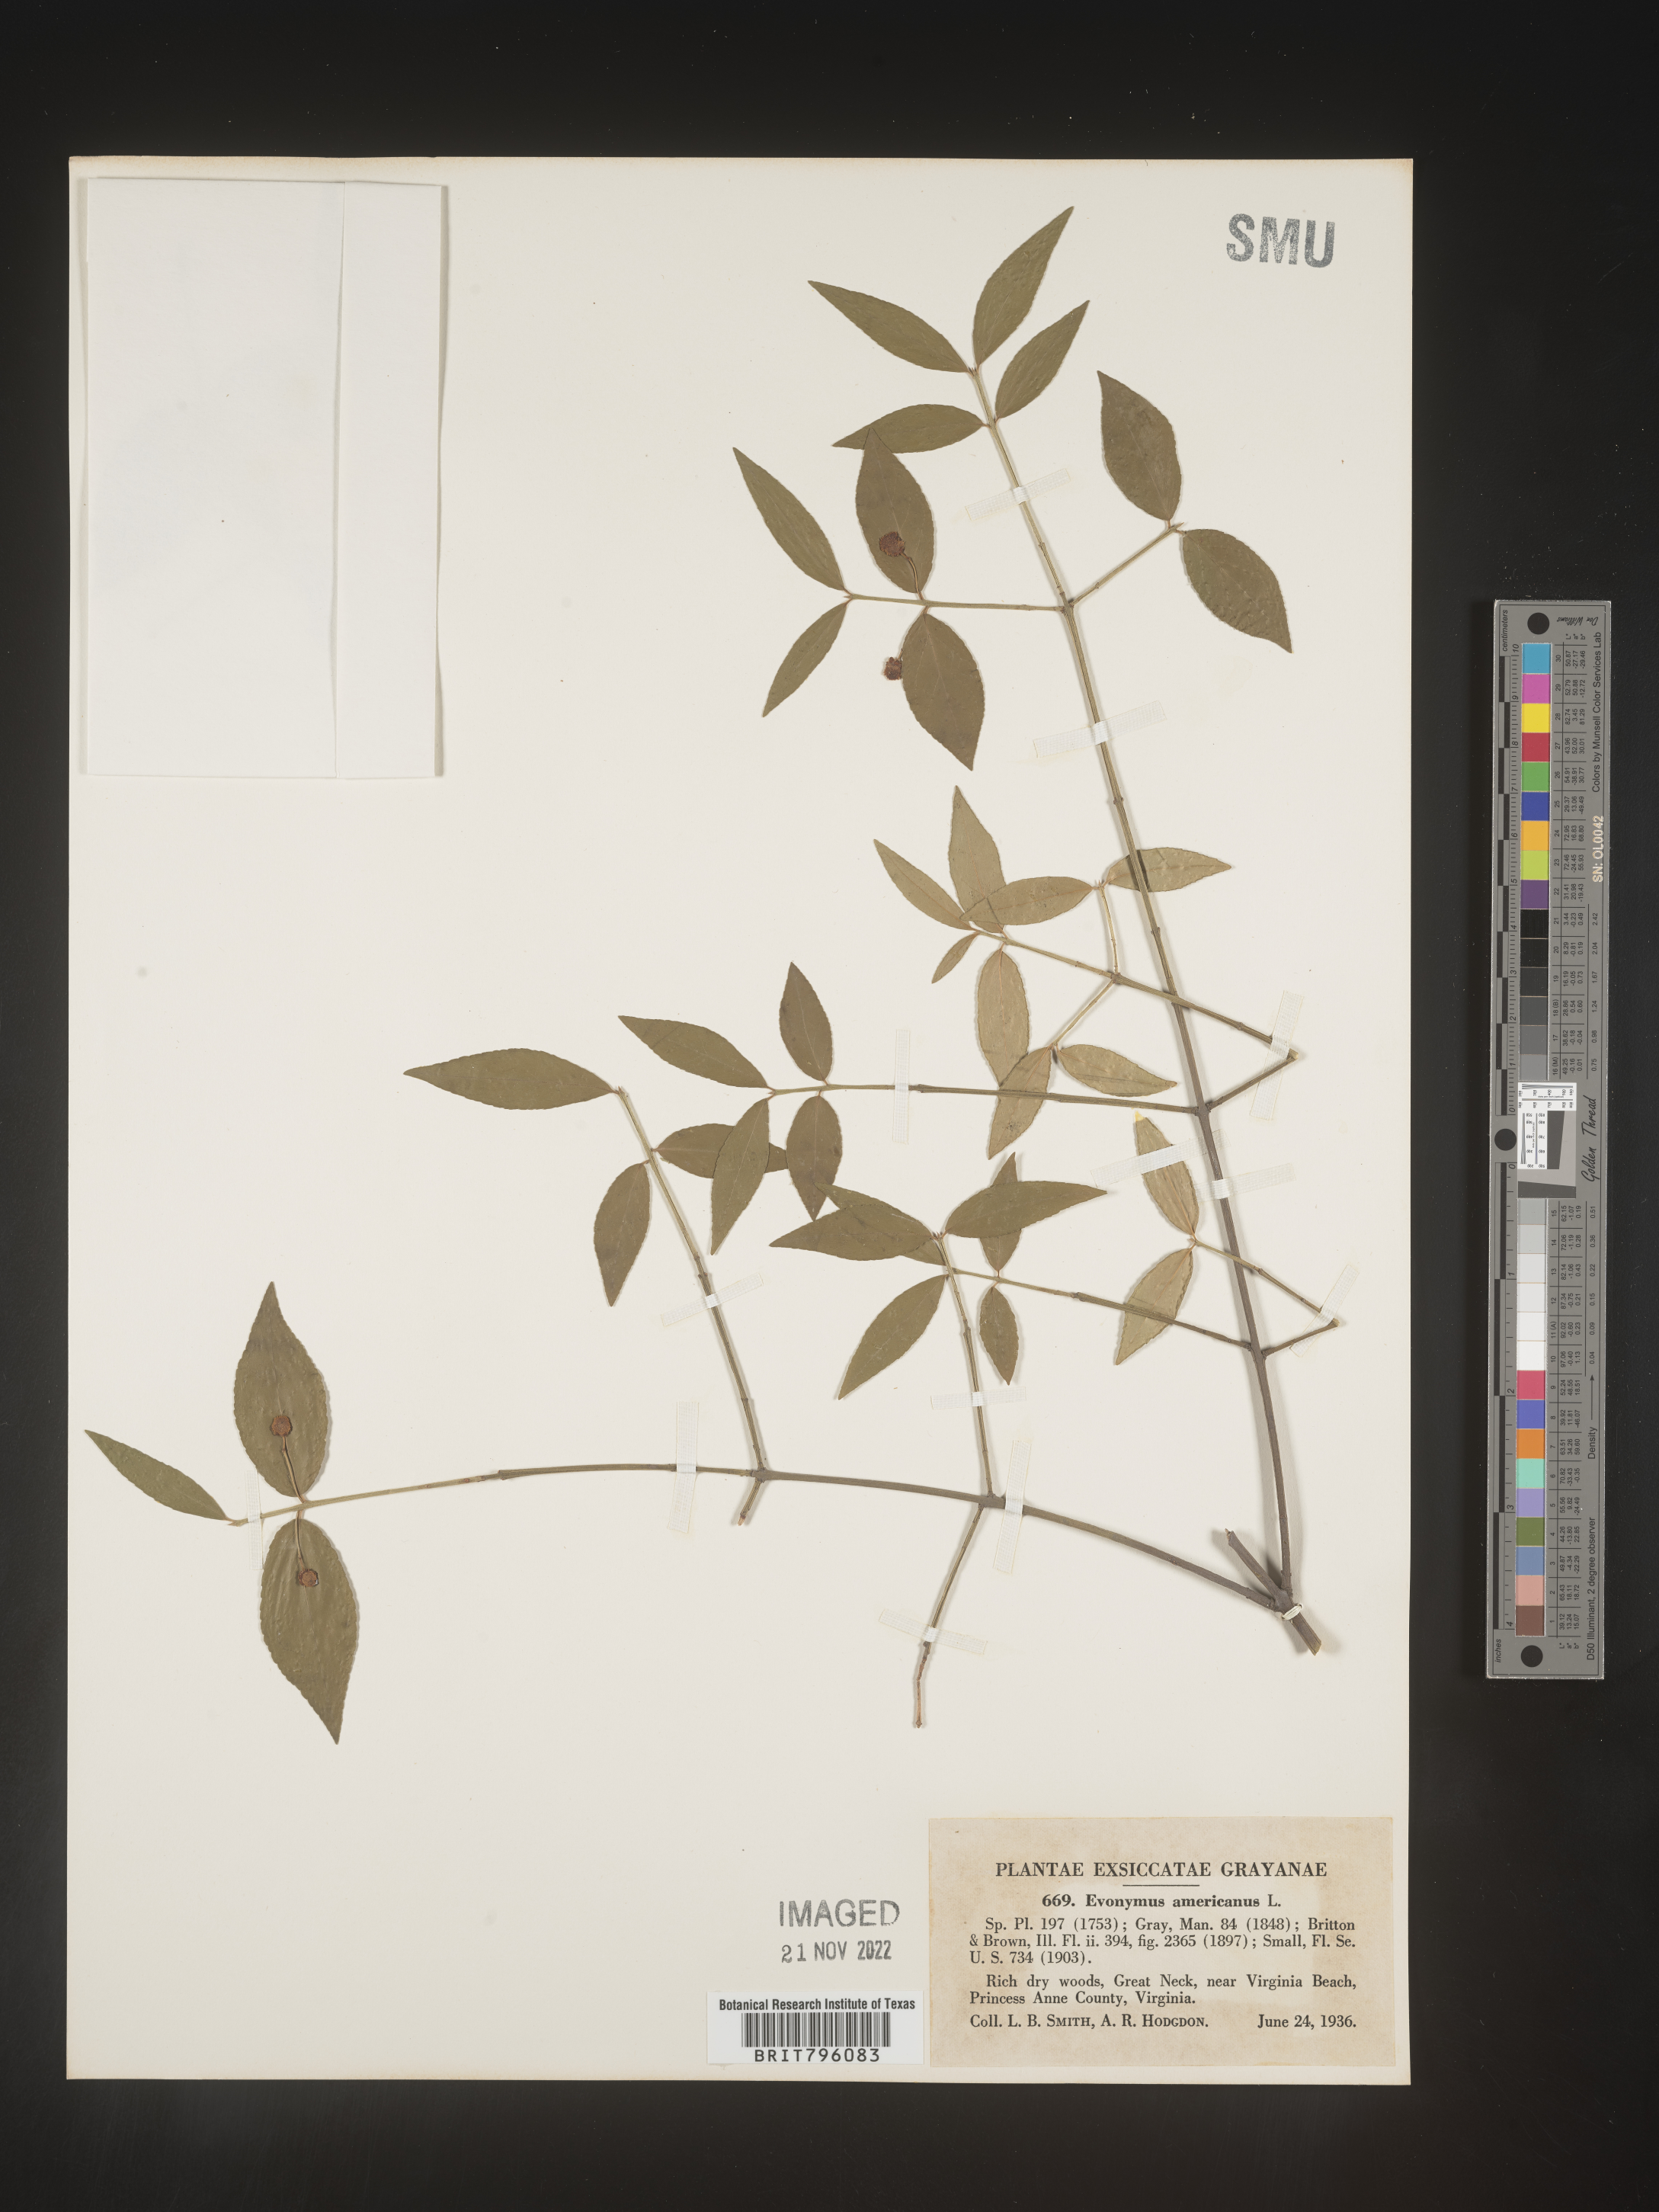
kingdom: Plantae
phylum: Tracheophyta
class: Magnoliopsida
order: Celastrales
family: Celastraceae
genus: Euonymus
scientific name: Euonymus americanus
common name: Bursting-heart
